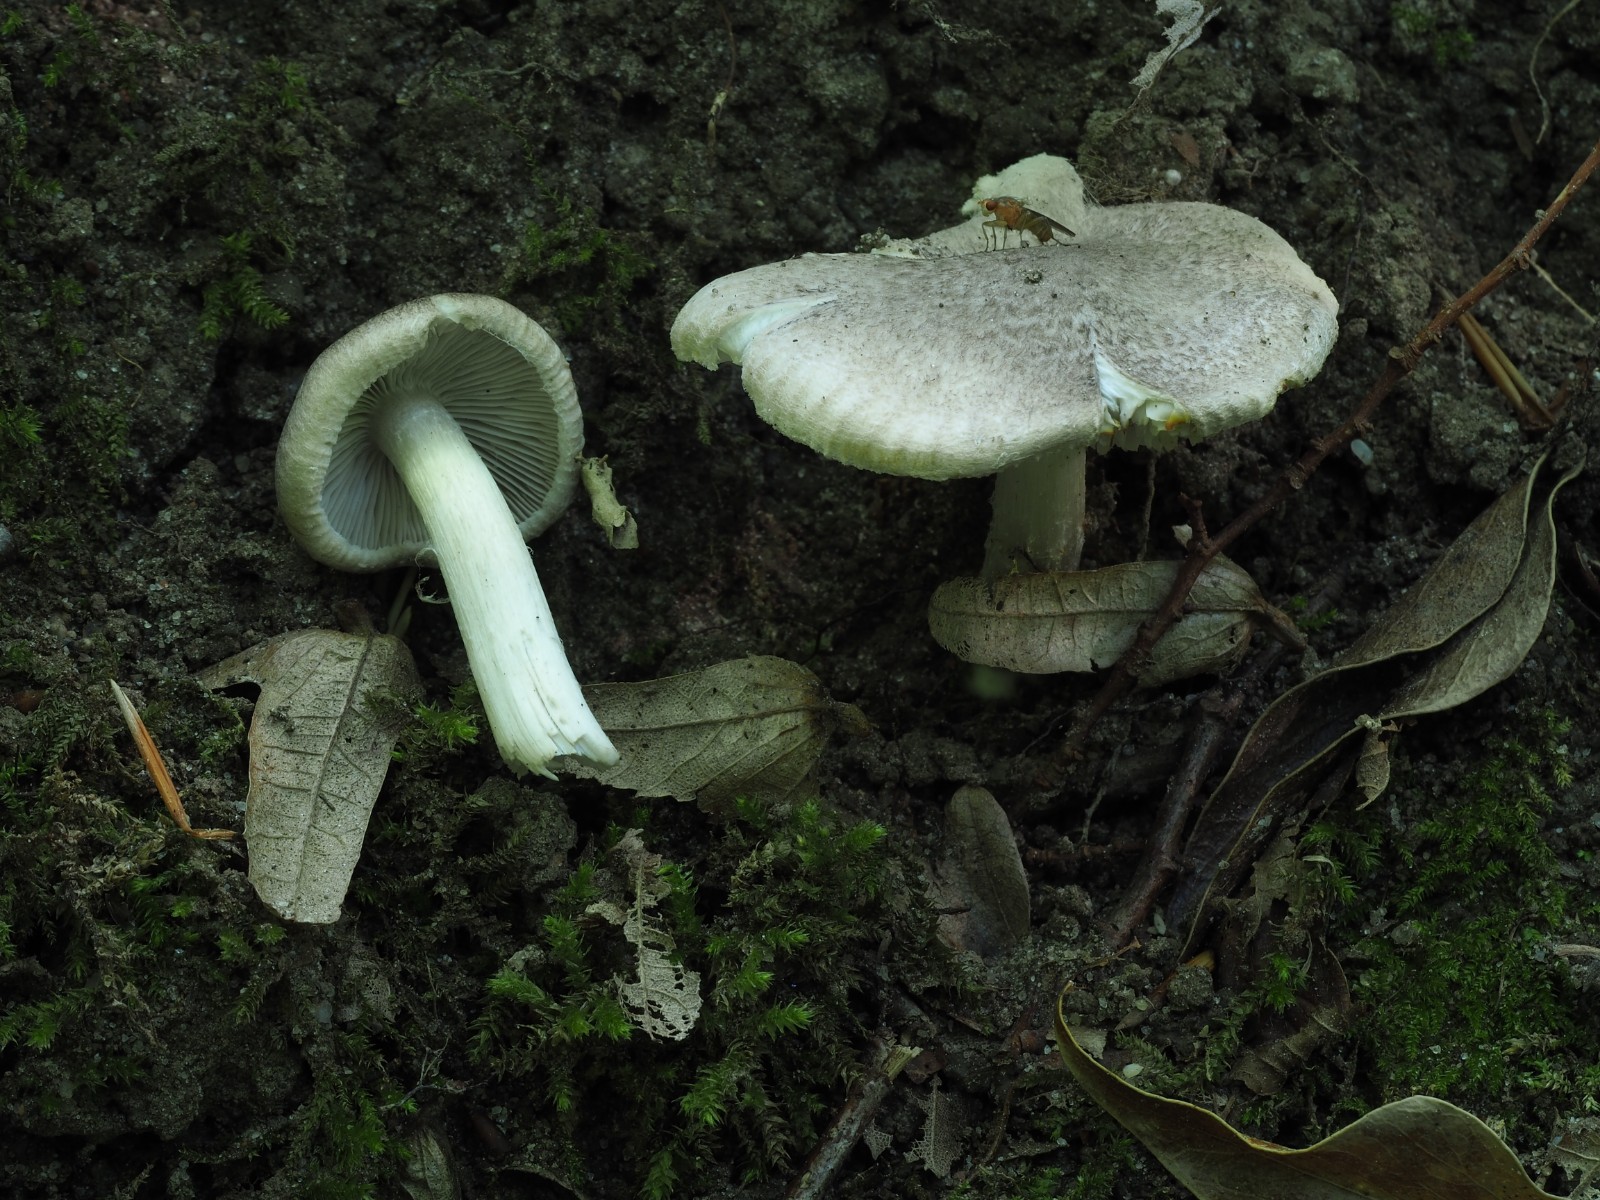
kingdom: Fungi
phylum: Basidiomycota
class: Agaricomycetes
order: Agaricales
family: Tricholomataceae
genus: Tricholoma
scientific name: Tricholoma scalpturatum
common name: gulplettet ridderhat
